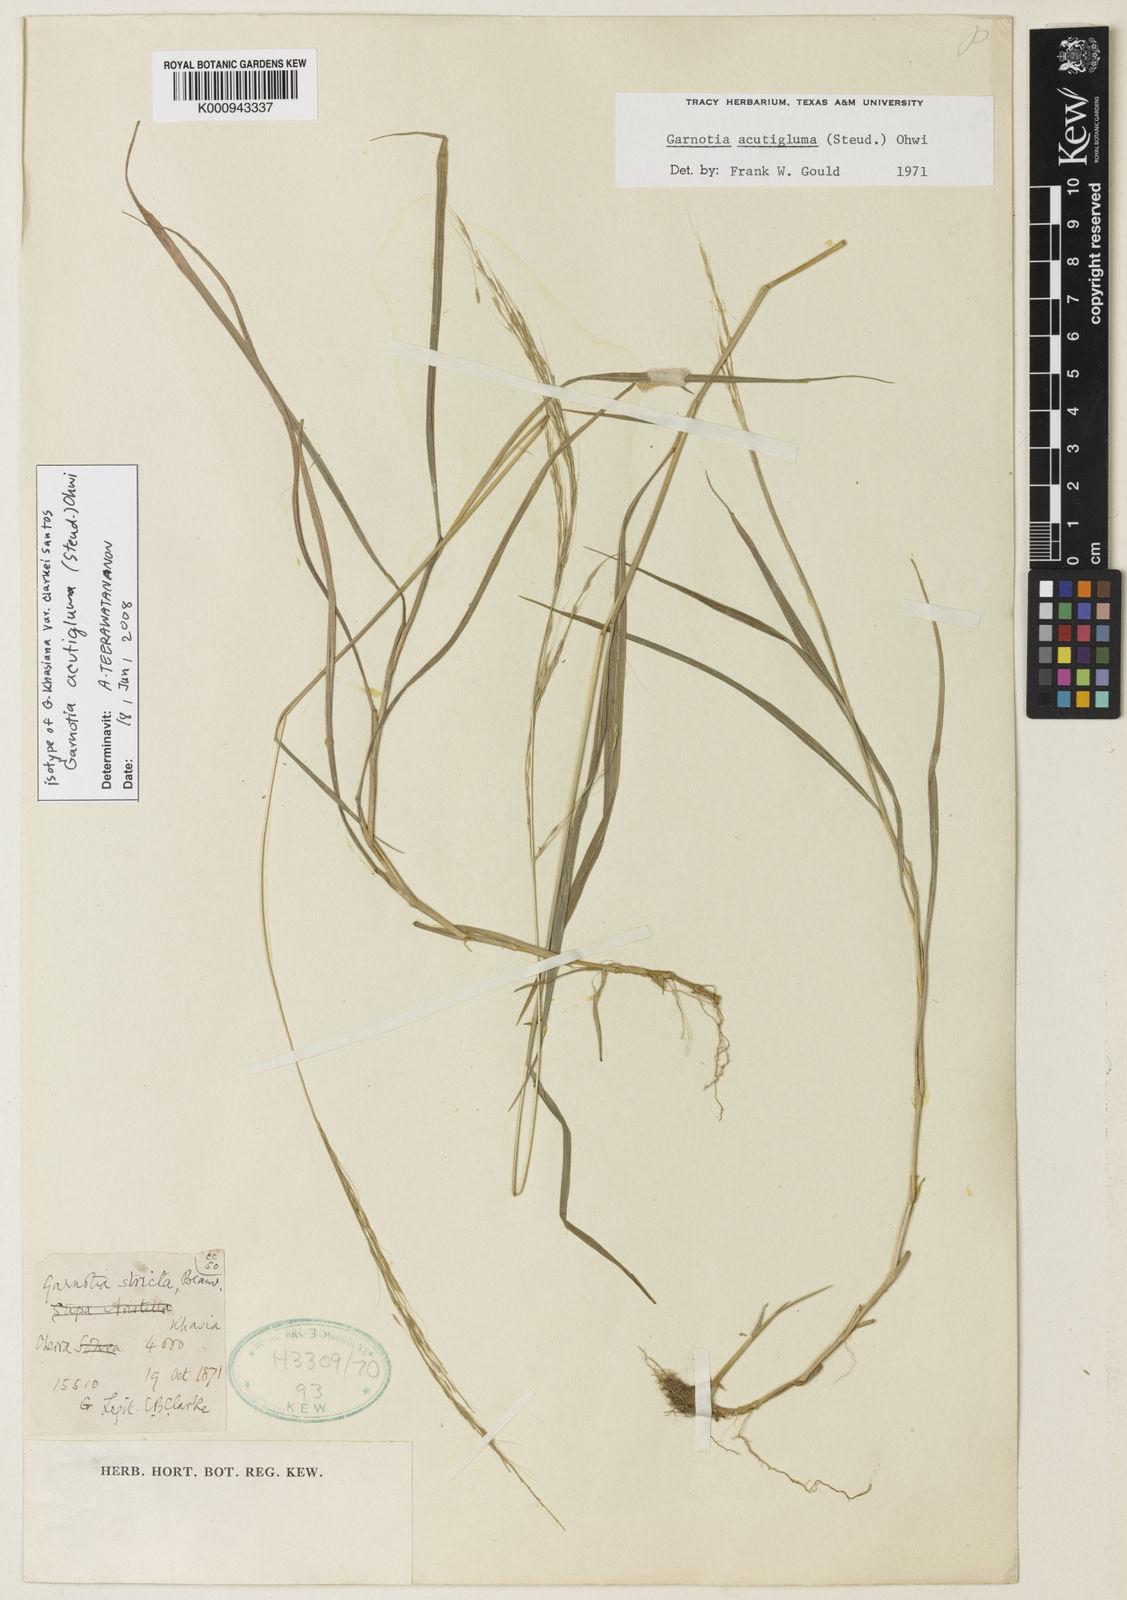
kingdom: Plantae
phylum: Tracheophyta
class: Liliopsida
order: Poales
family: Poaceae
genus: Garnotia
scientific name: Garnotia stricta
